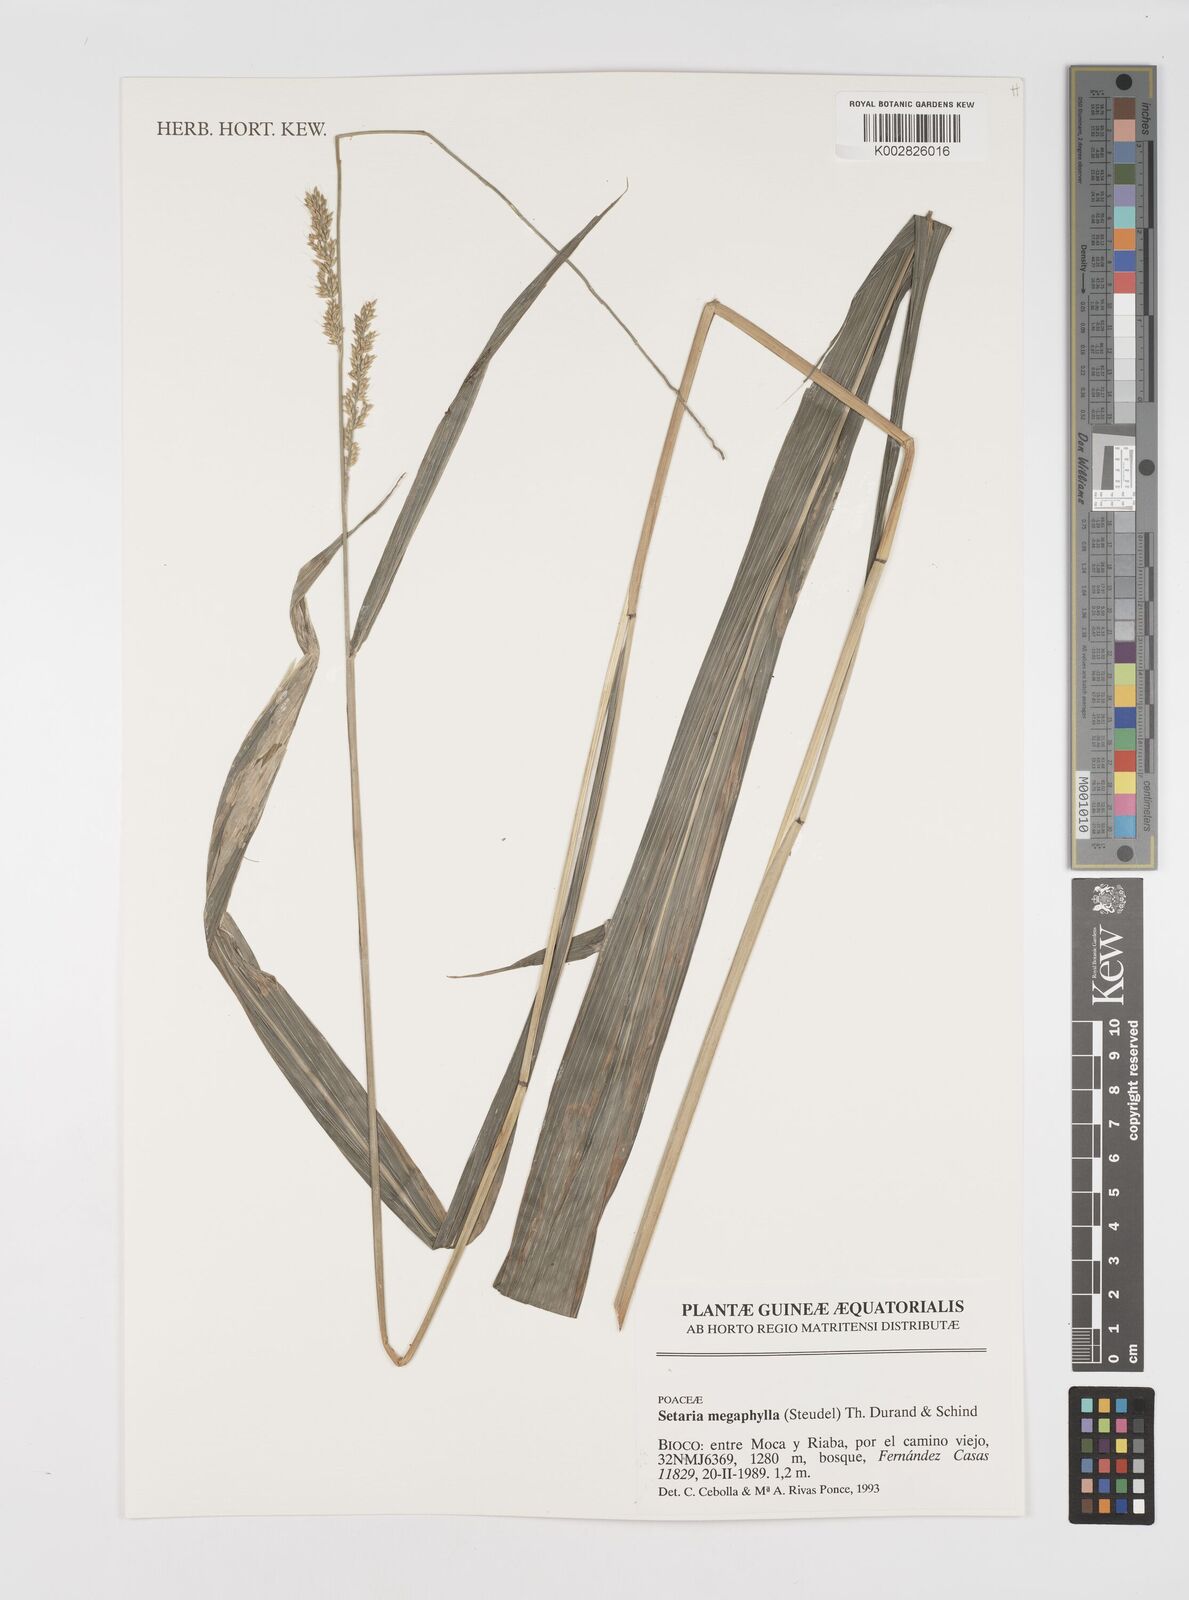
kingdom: Plantae
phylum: Tracheophyta
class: Liliopsida
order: Poales
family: Poaceae
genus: Setaria
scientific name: Setaria megaphylla
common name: Bigleaf bristlegrass
